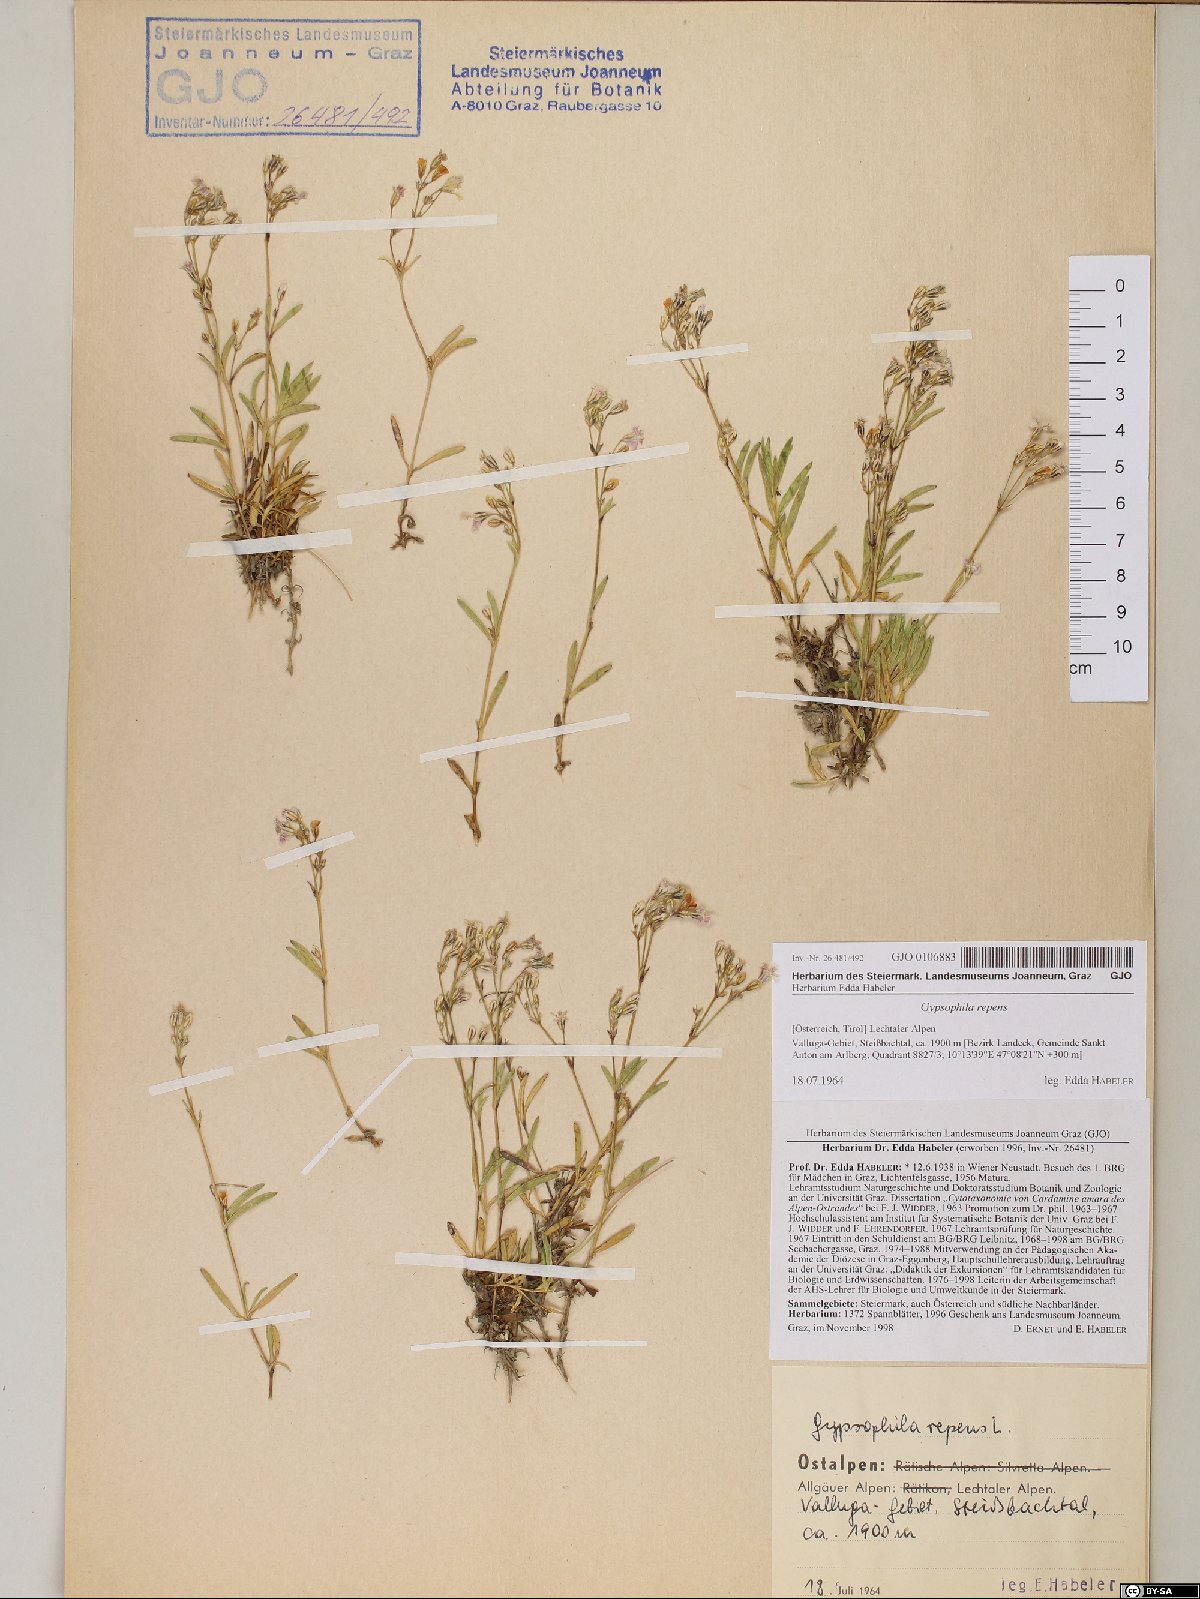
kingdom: Plantae
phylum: Tracheophyta
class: Magnoliopsida
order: Caryophyllales
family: Caryophyllaceae
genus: Gypsophila
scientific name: Gypsophila repens
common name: Creeping baby's-breath
